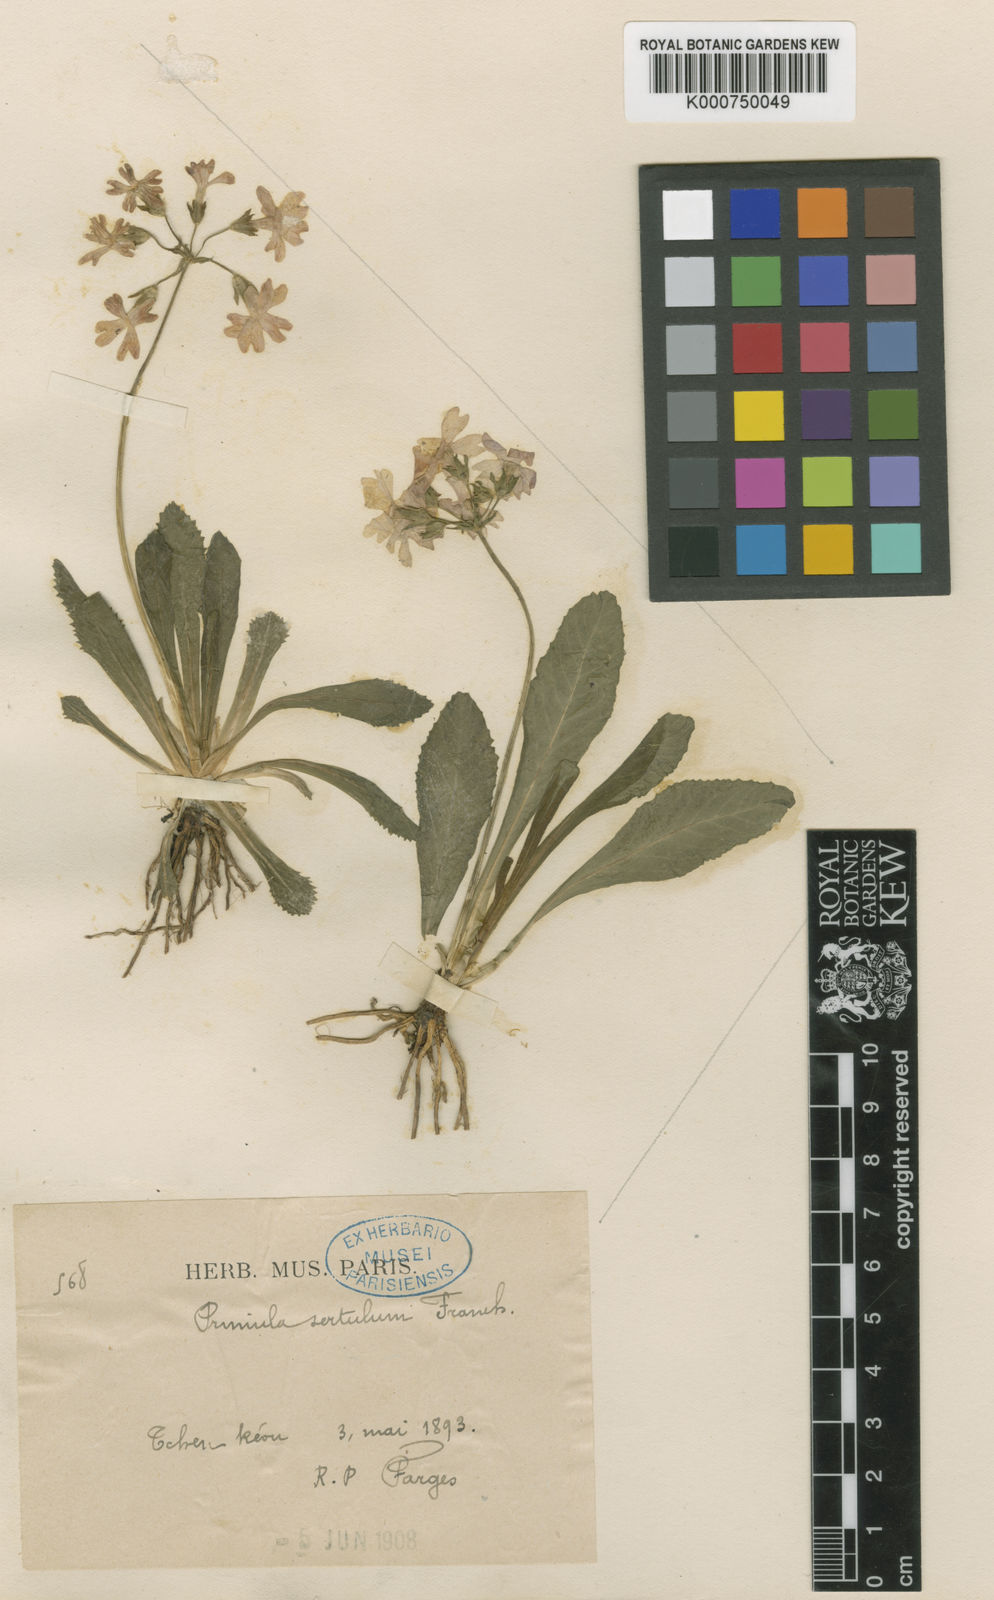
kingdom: Plantae
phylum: Tracheophyta
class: Magnoliopsida
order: Ericales
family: Primulaceae
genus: Primula
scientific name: Primula sertulum
